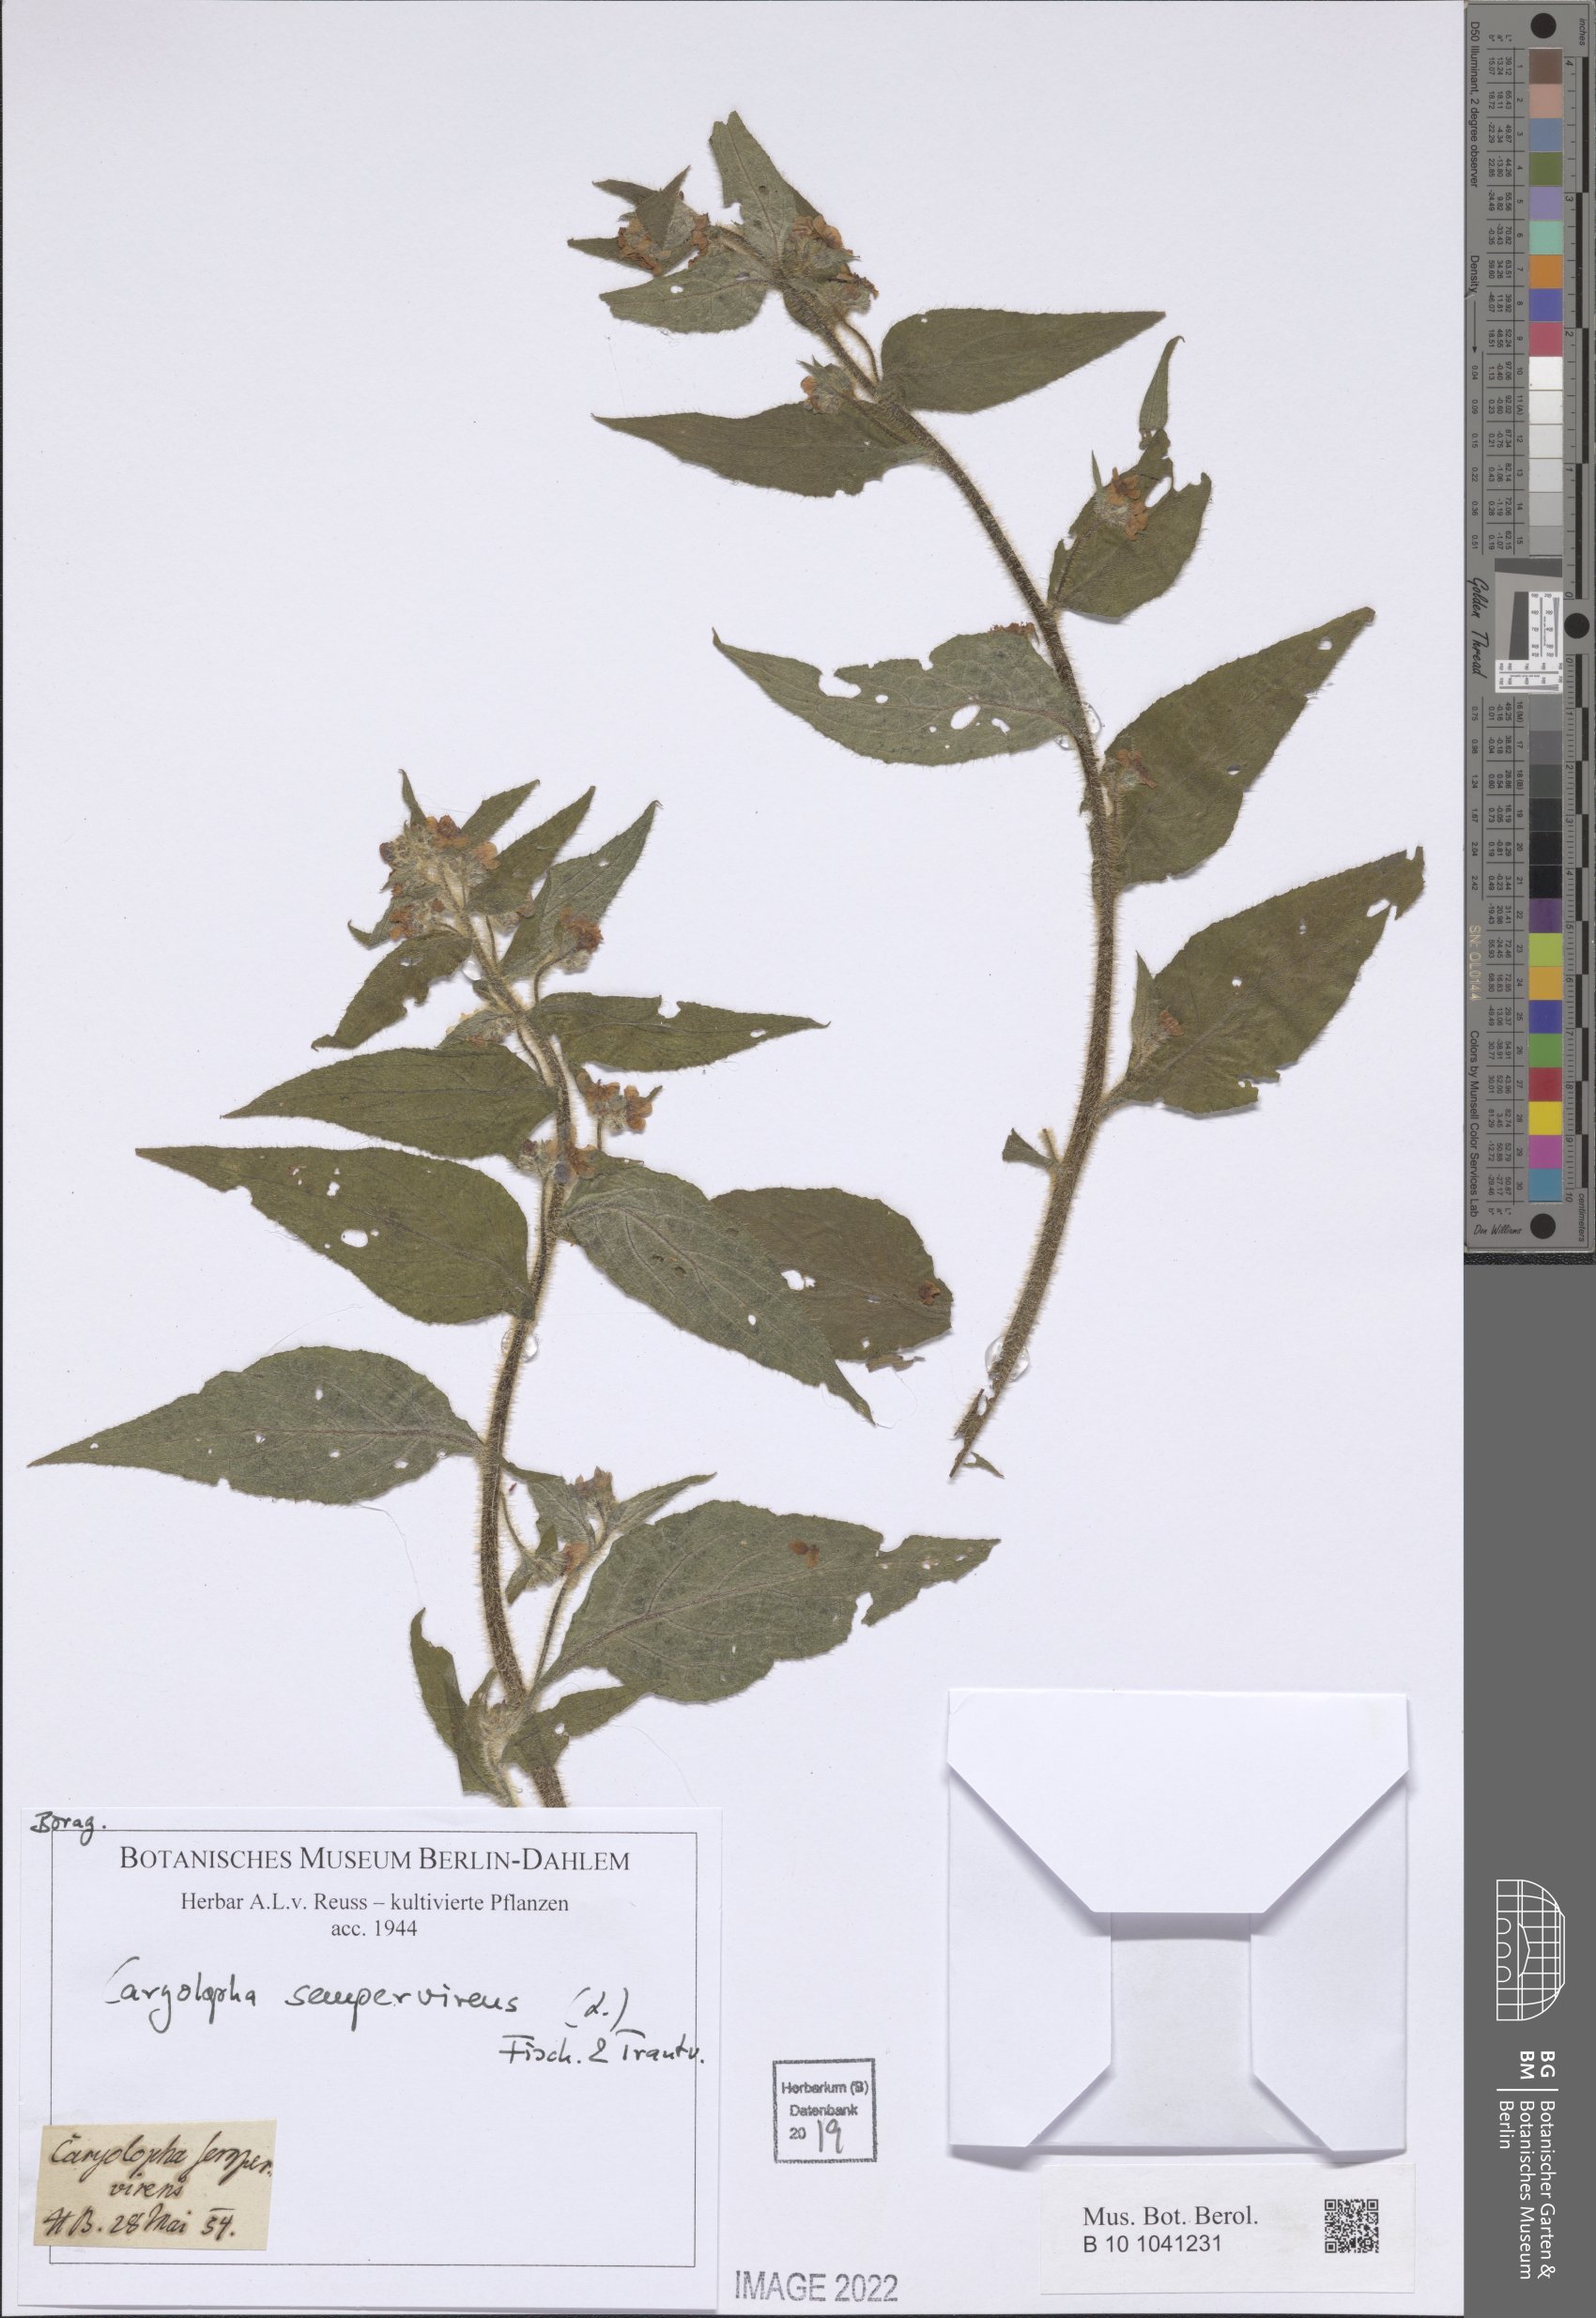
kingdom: Plantae
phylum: Tracheophyta
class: Magnoliopsida
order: Boraginales
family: Boraginaceae
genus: Pentaglottis
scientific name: Pentaglottis sempervirens
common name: Green alkanet
